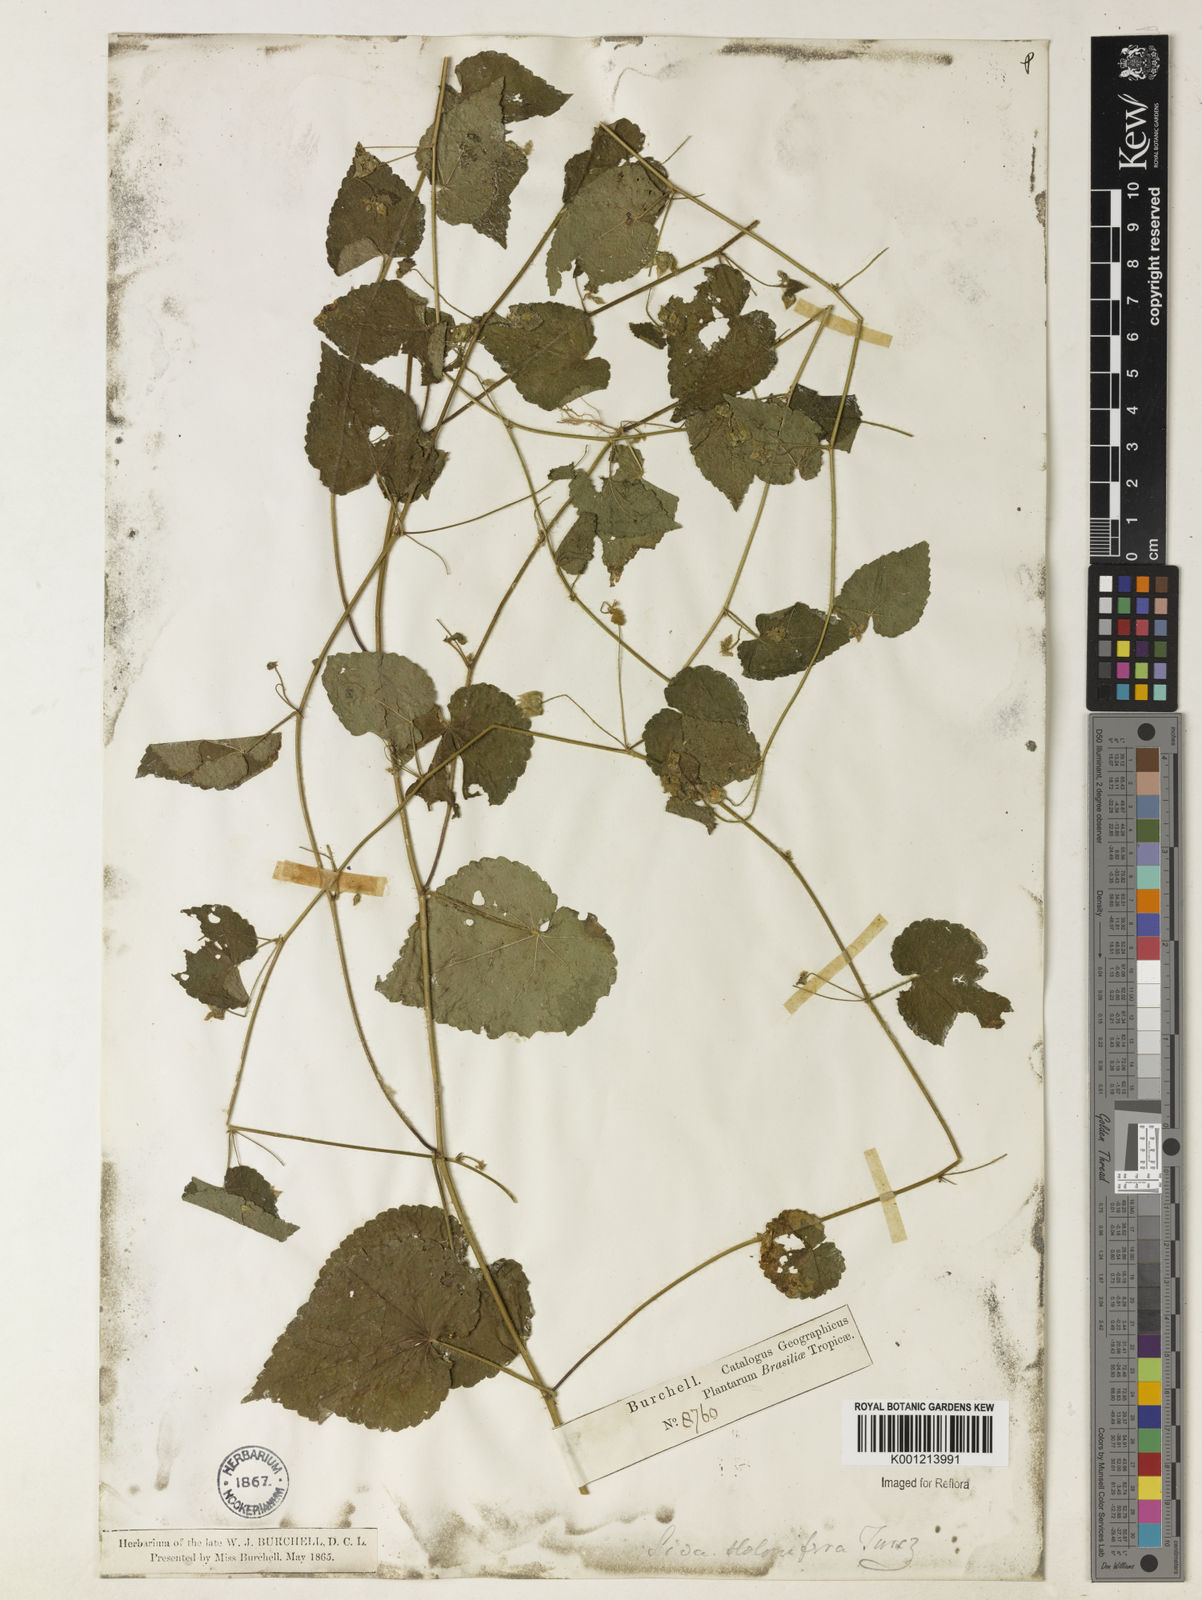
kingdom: Plantae
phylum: Tracheophyta
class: Magnoliopsida
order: Malvales
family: Malvaceae
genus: Sida
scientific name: Sida jussieana
